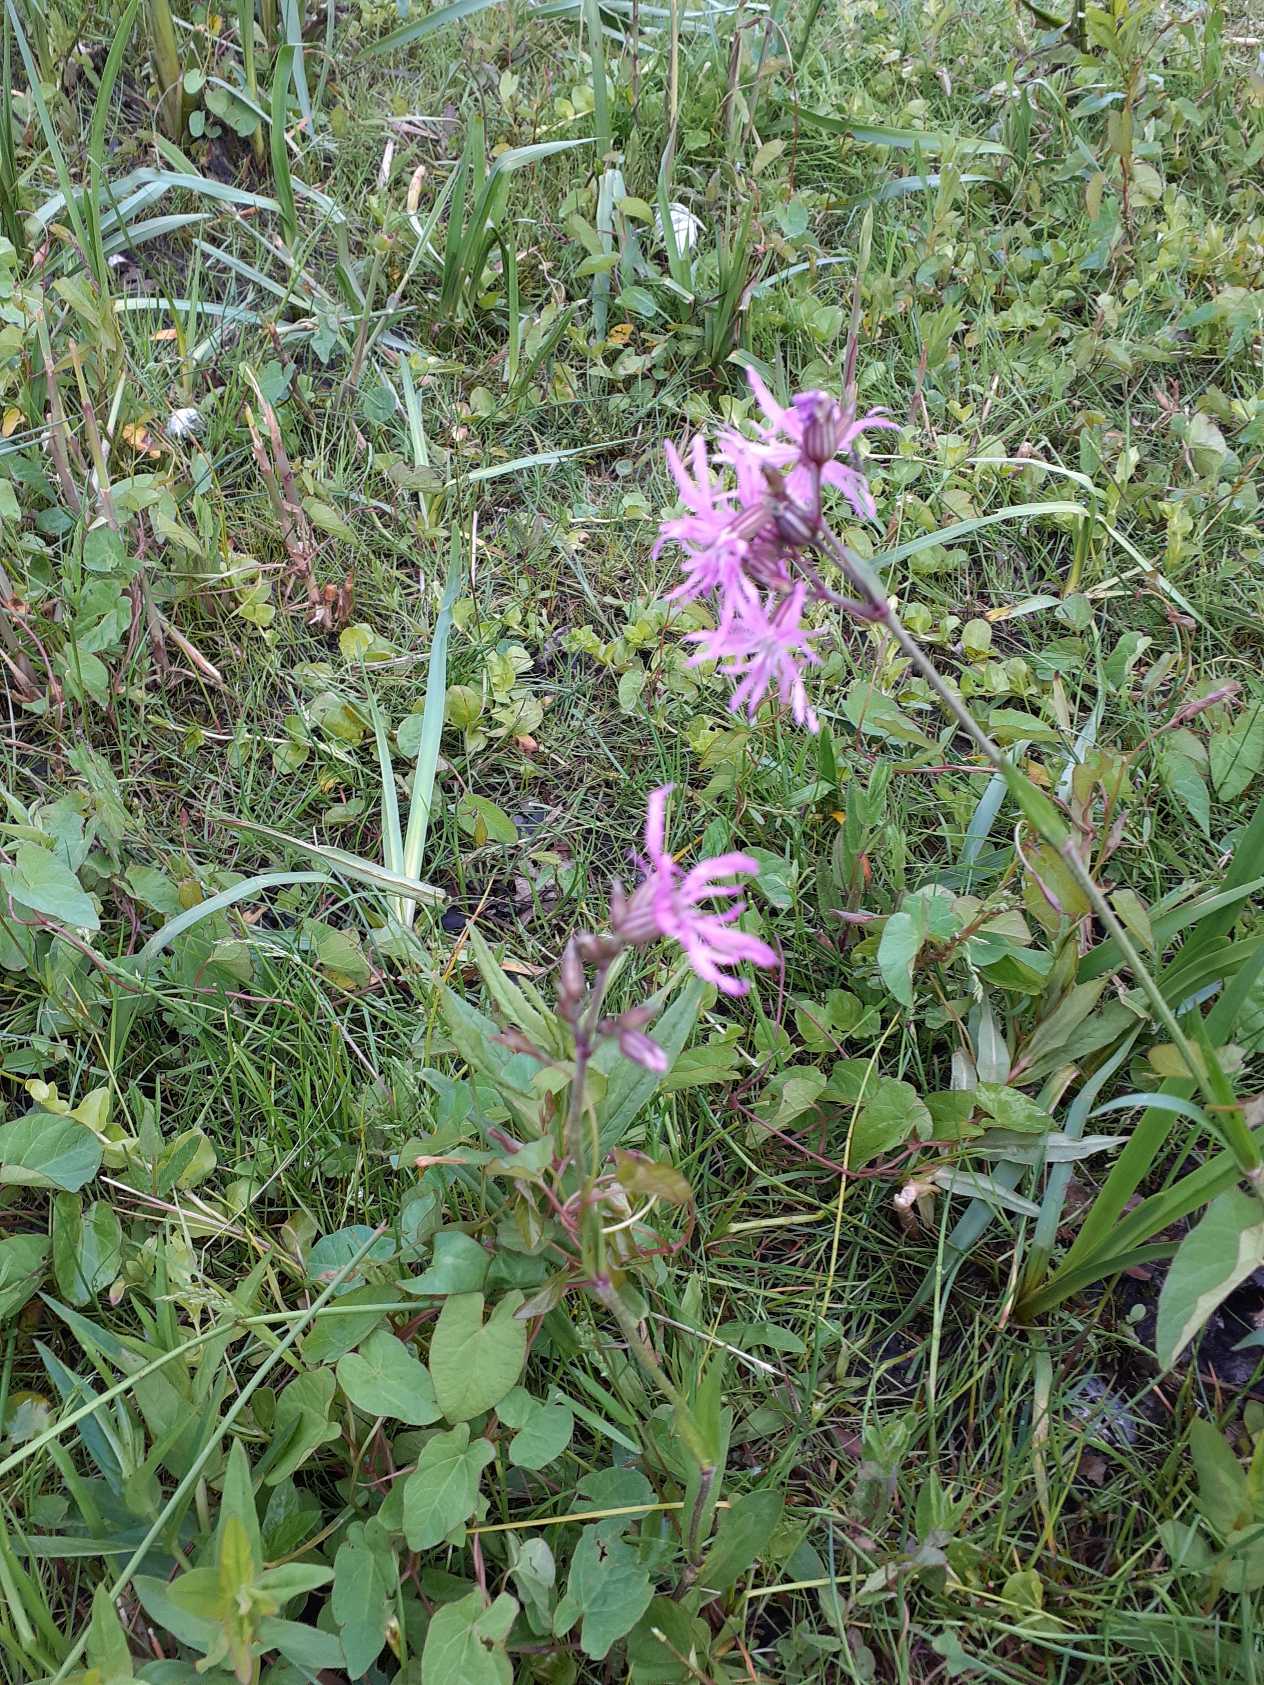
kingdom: Plantae
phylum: Tracheophyta
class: Magnoliopsida
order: Caryophyllales
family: Caryophyllaceae
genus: Silene
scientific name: Silene flos-cuculi
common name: Trævlekrone
